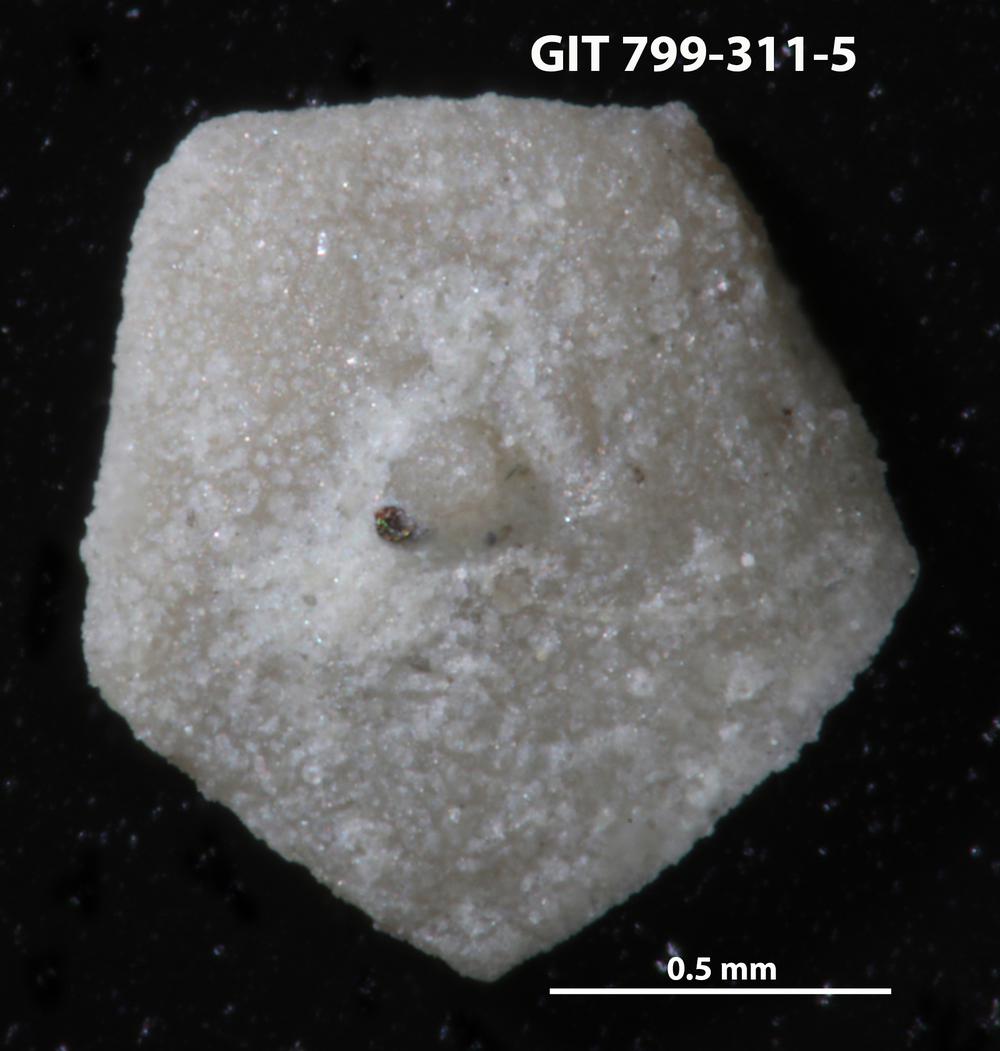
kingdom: Animalia
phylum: Echinodermata
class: Echinoidea
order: Bothriocidaroida
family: Bothriocidaridae
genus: Neobothriocidaris
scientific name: Neobothriocidaris
